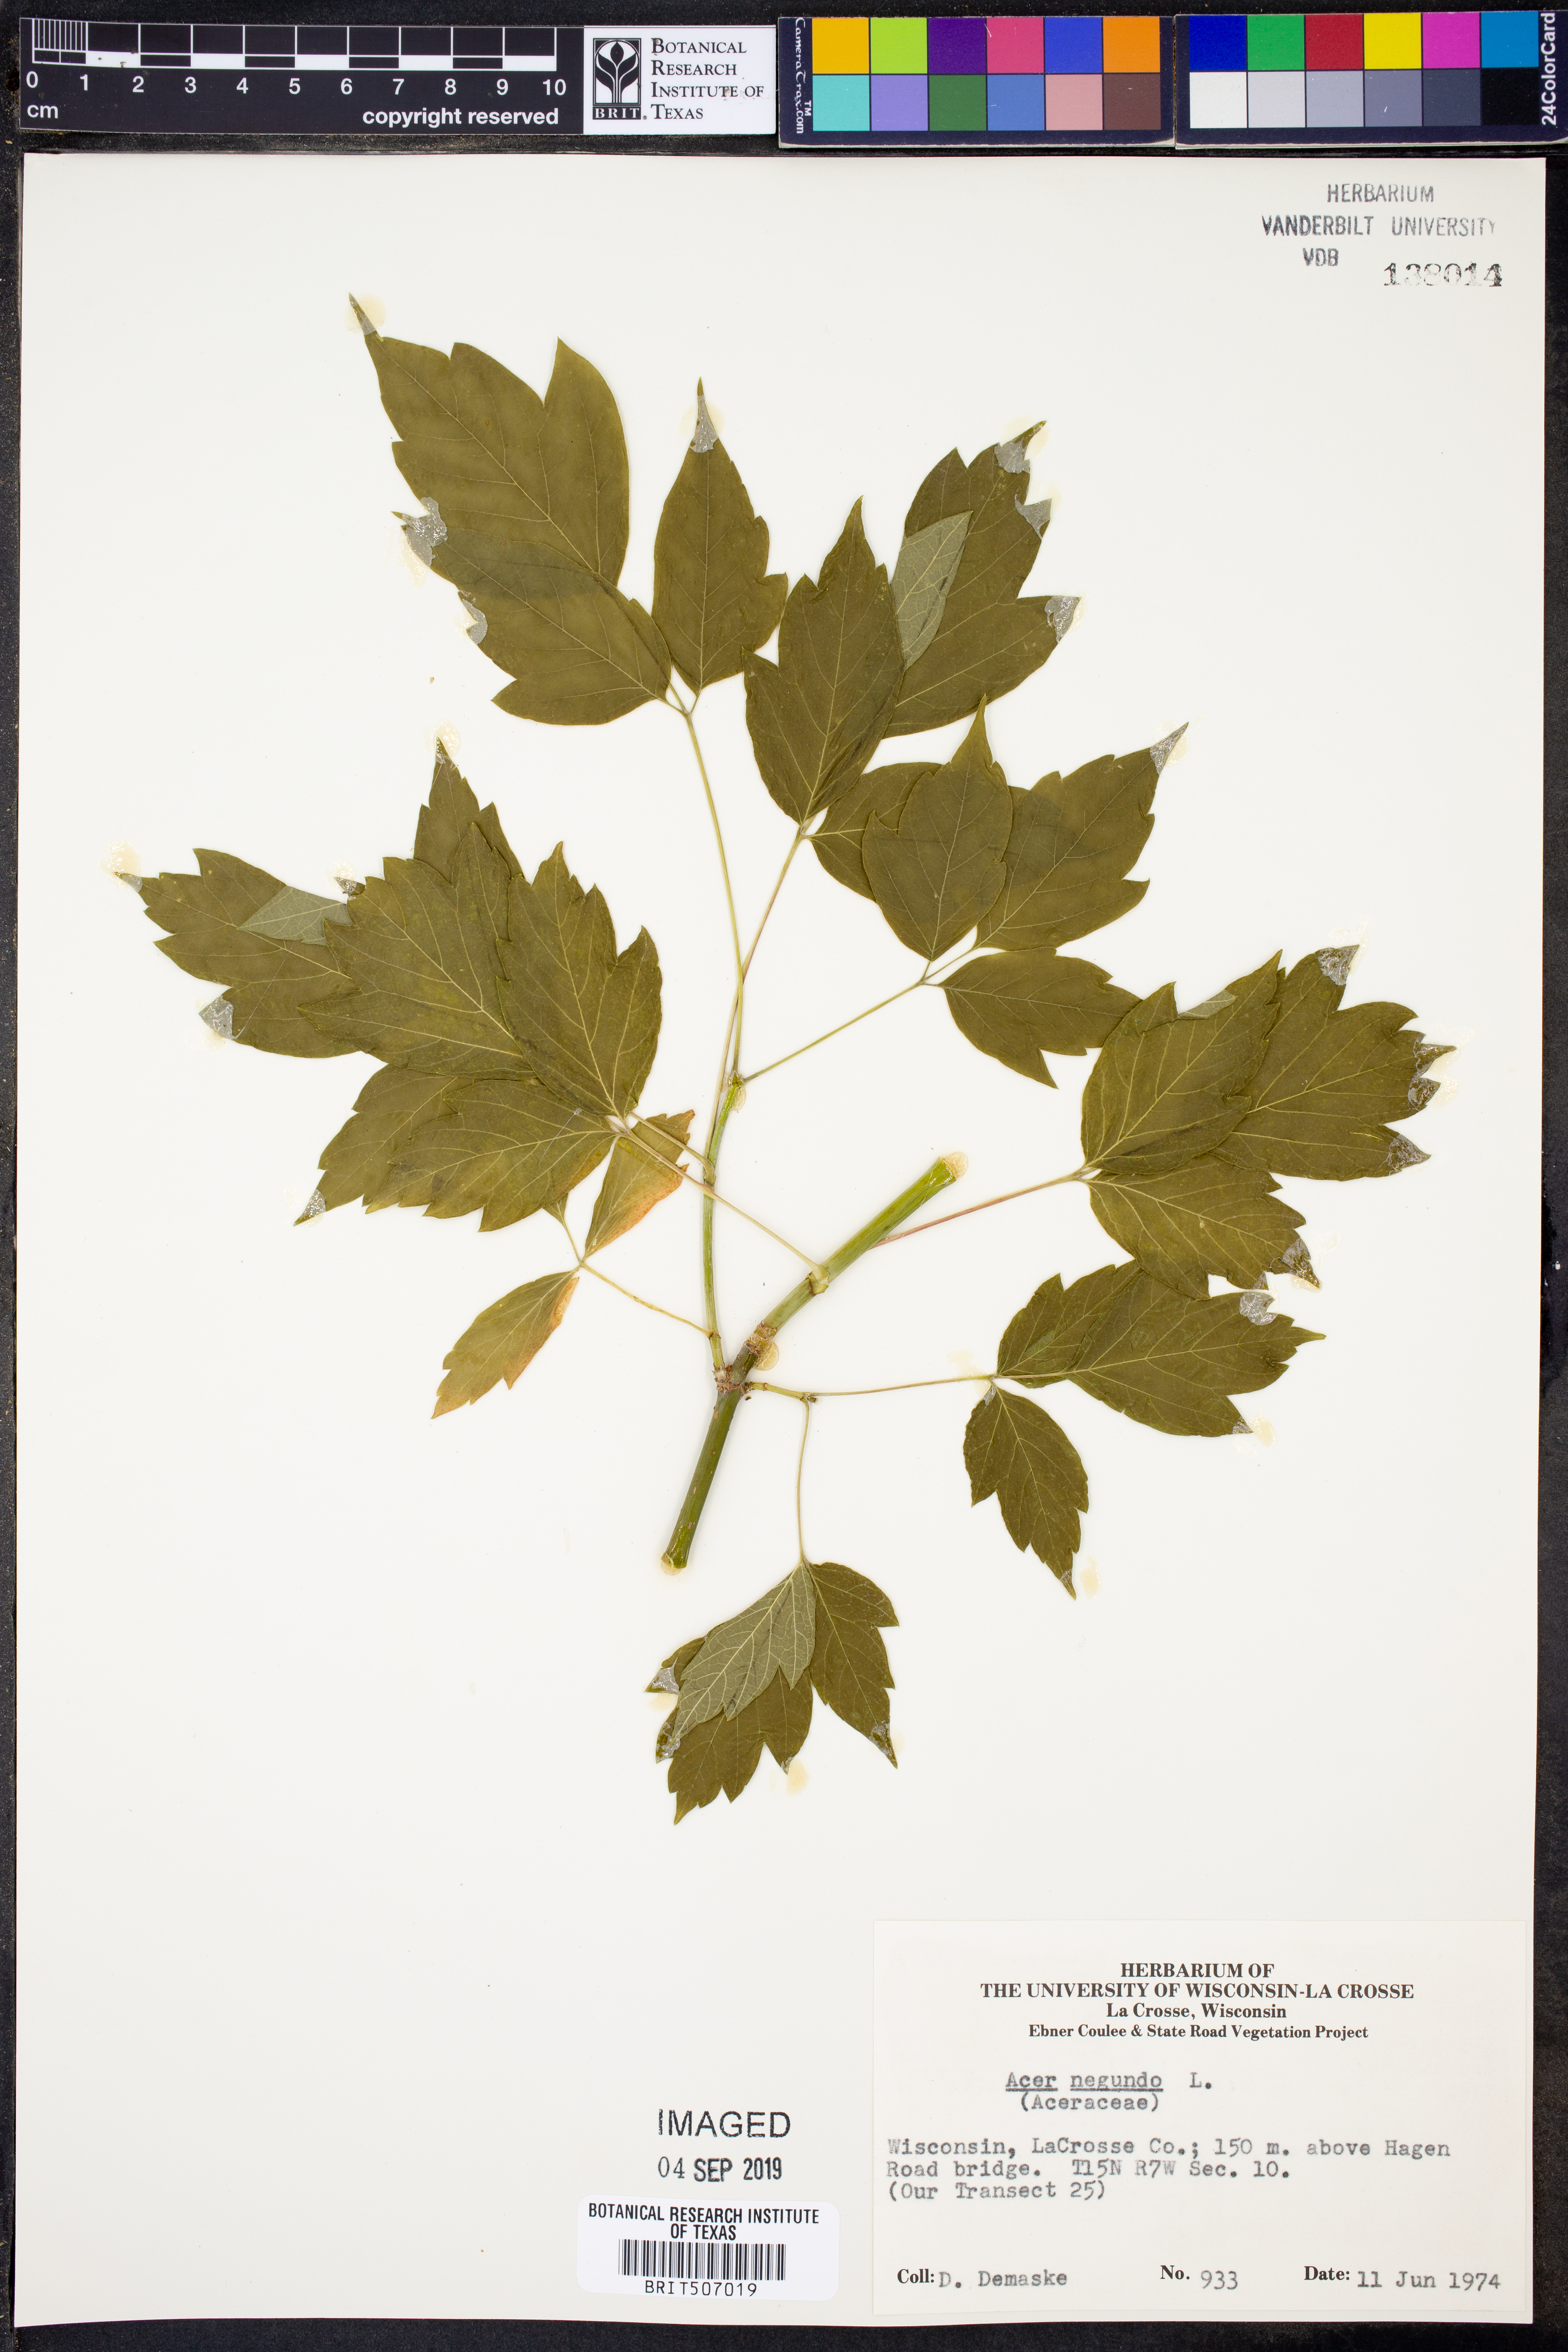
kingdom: Plantae
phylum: Tracheophyta
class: Magnoliopsida
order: Sapindales
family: Sapindaceae
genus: Acer
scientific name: Acer negundo
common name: Ashleaf maple
